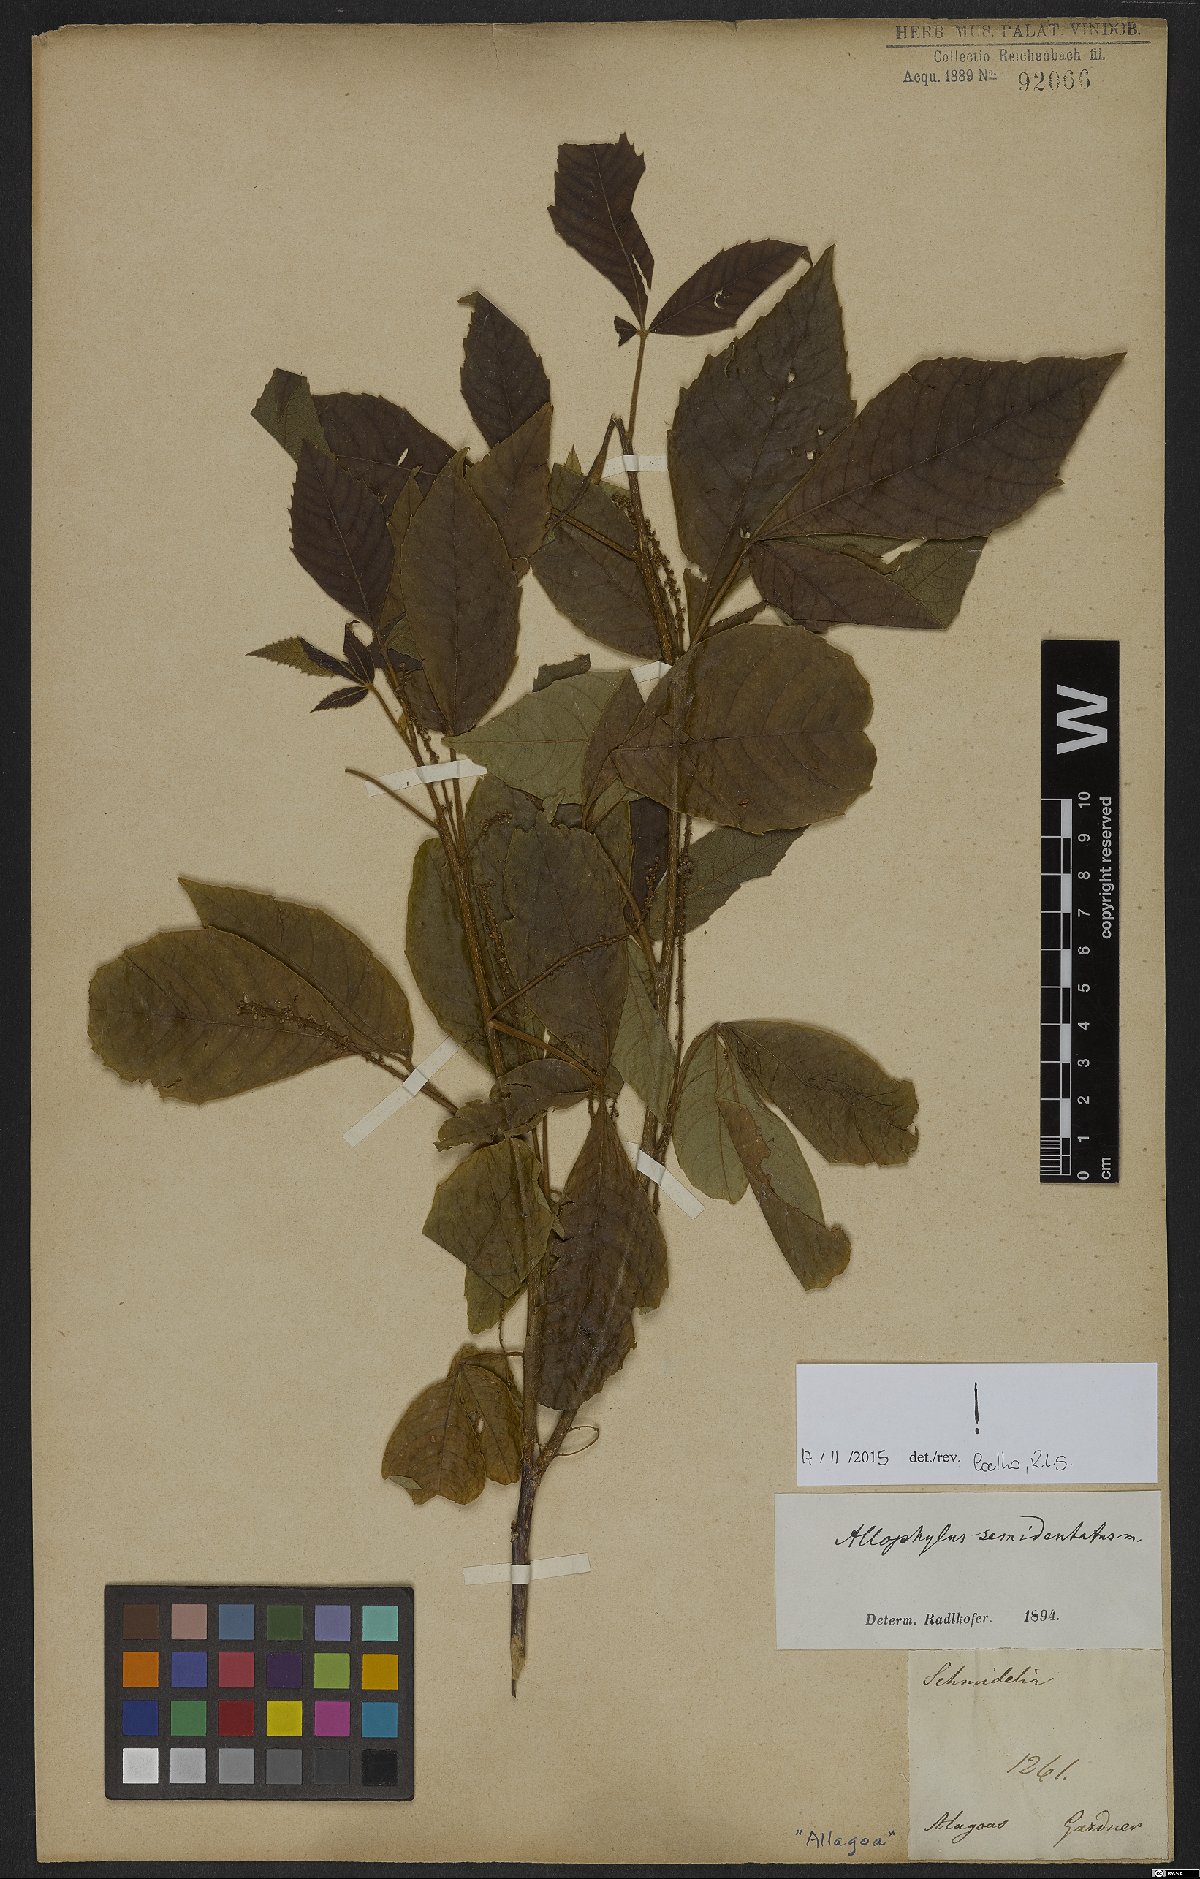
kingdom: Plantae
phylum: Tracheophyta
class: Magnoliopsida
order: Sapindales
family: Sapindaceae
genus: Allophylus
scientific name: Allophylus semidentatus
